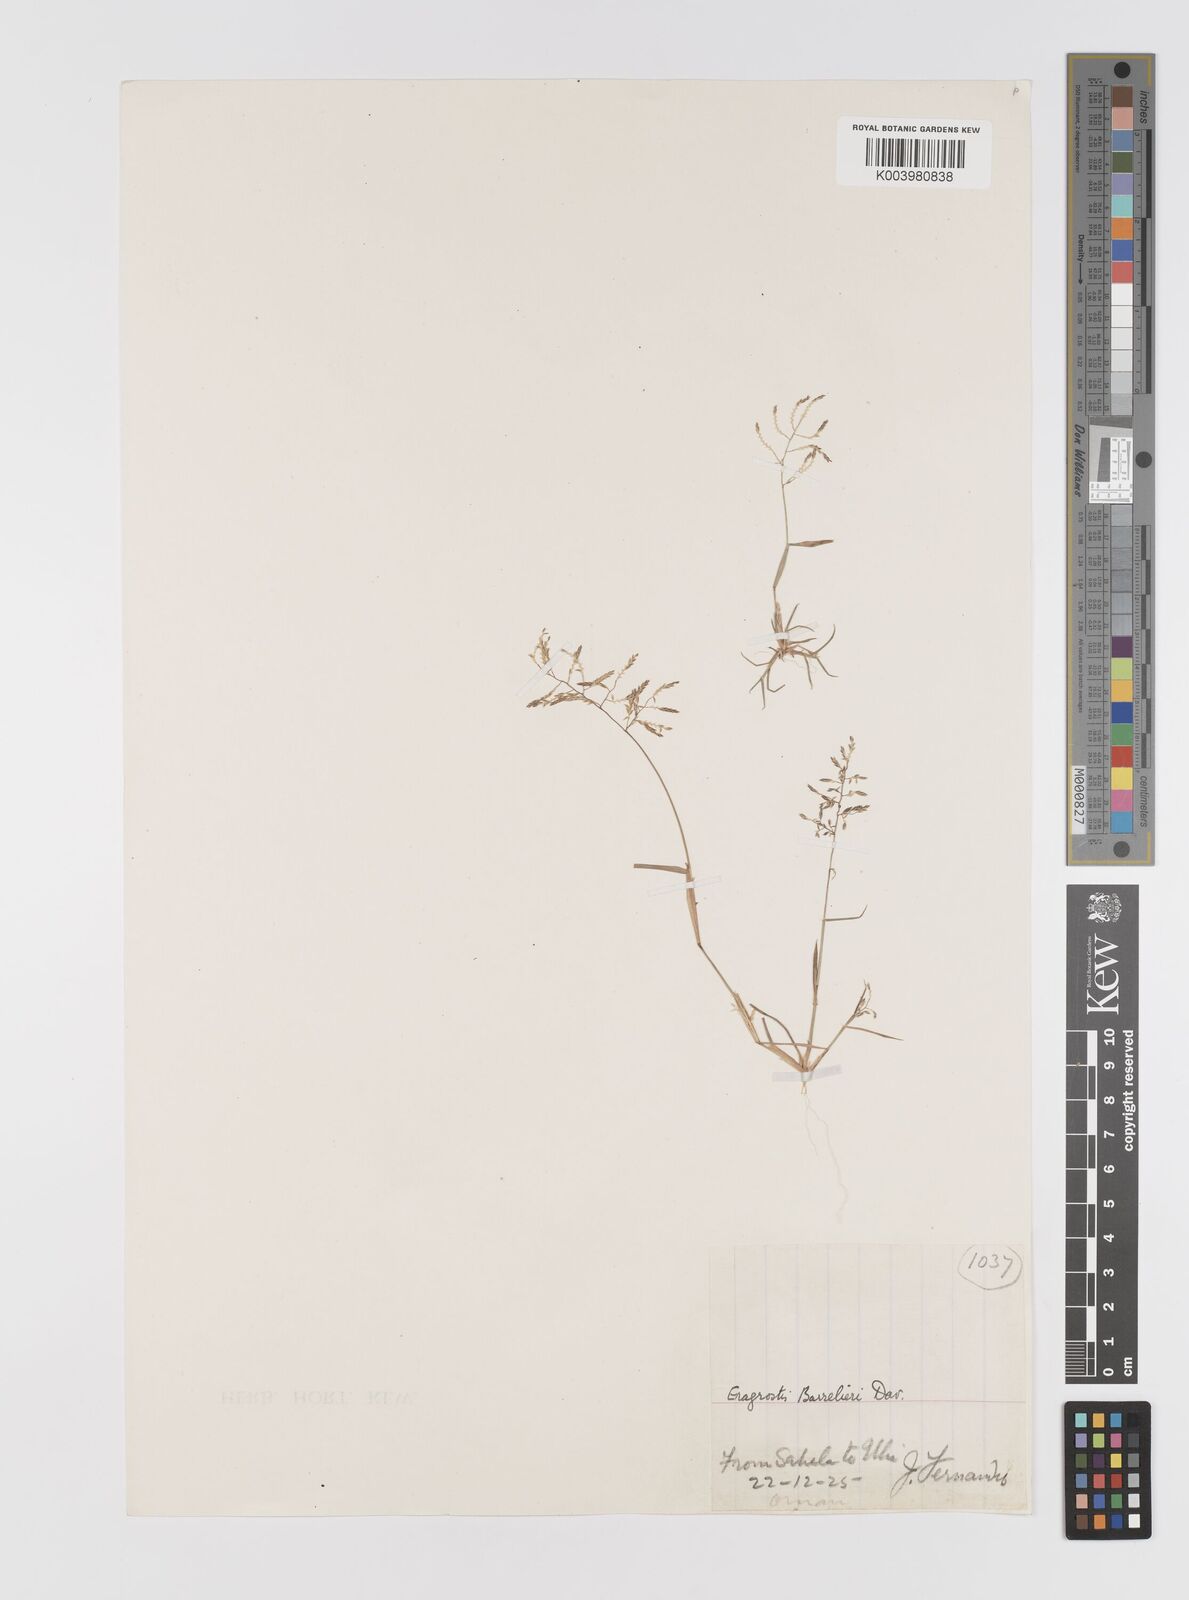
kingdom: Plantae
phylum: Tracheophyta
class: Liliopsida
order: Poales
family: Poaceae
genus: Eragrostis
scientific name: Eragrostis cilianensis
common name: Stinkgrass
